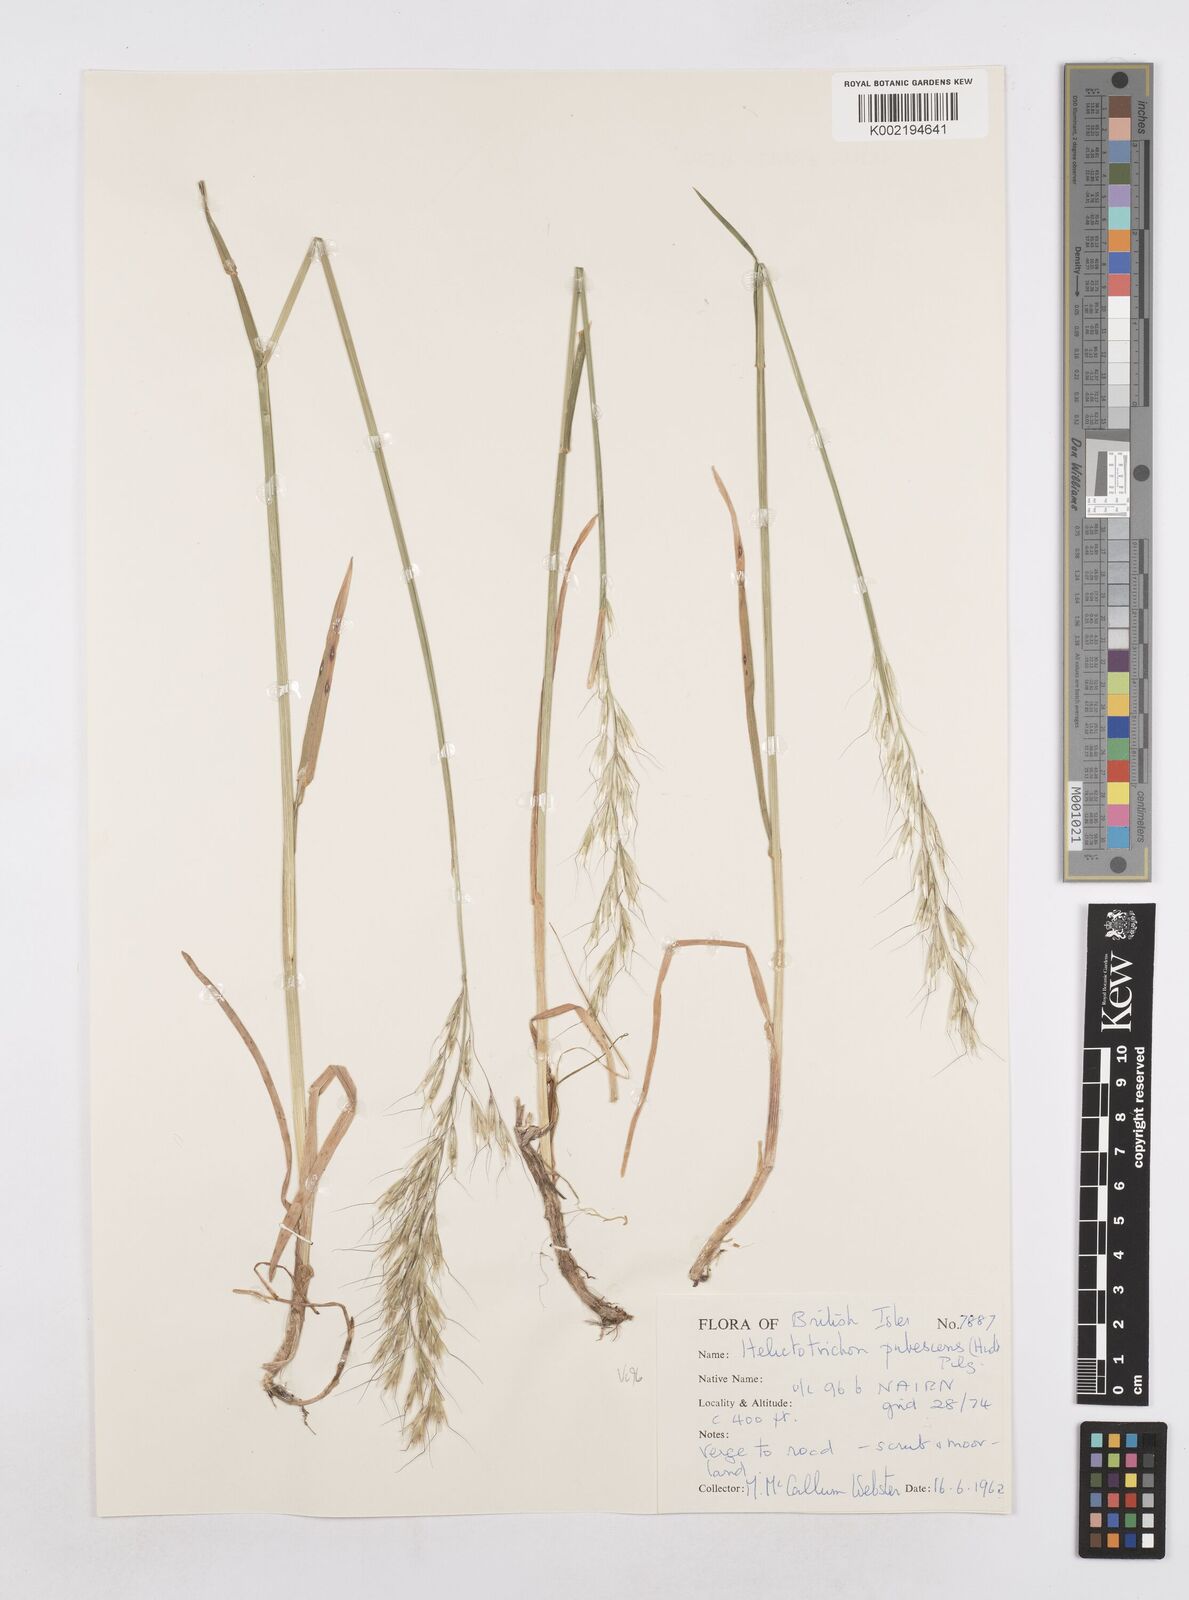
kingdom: Plantae
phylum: Tracheophyta
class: Liliopsida
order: Poales
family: Poaceae
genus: Avenula
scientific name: Avenula pubescens
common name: Downy alpine oatgrass
